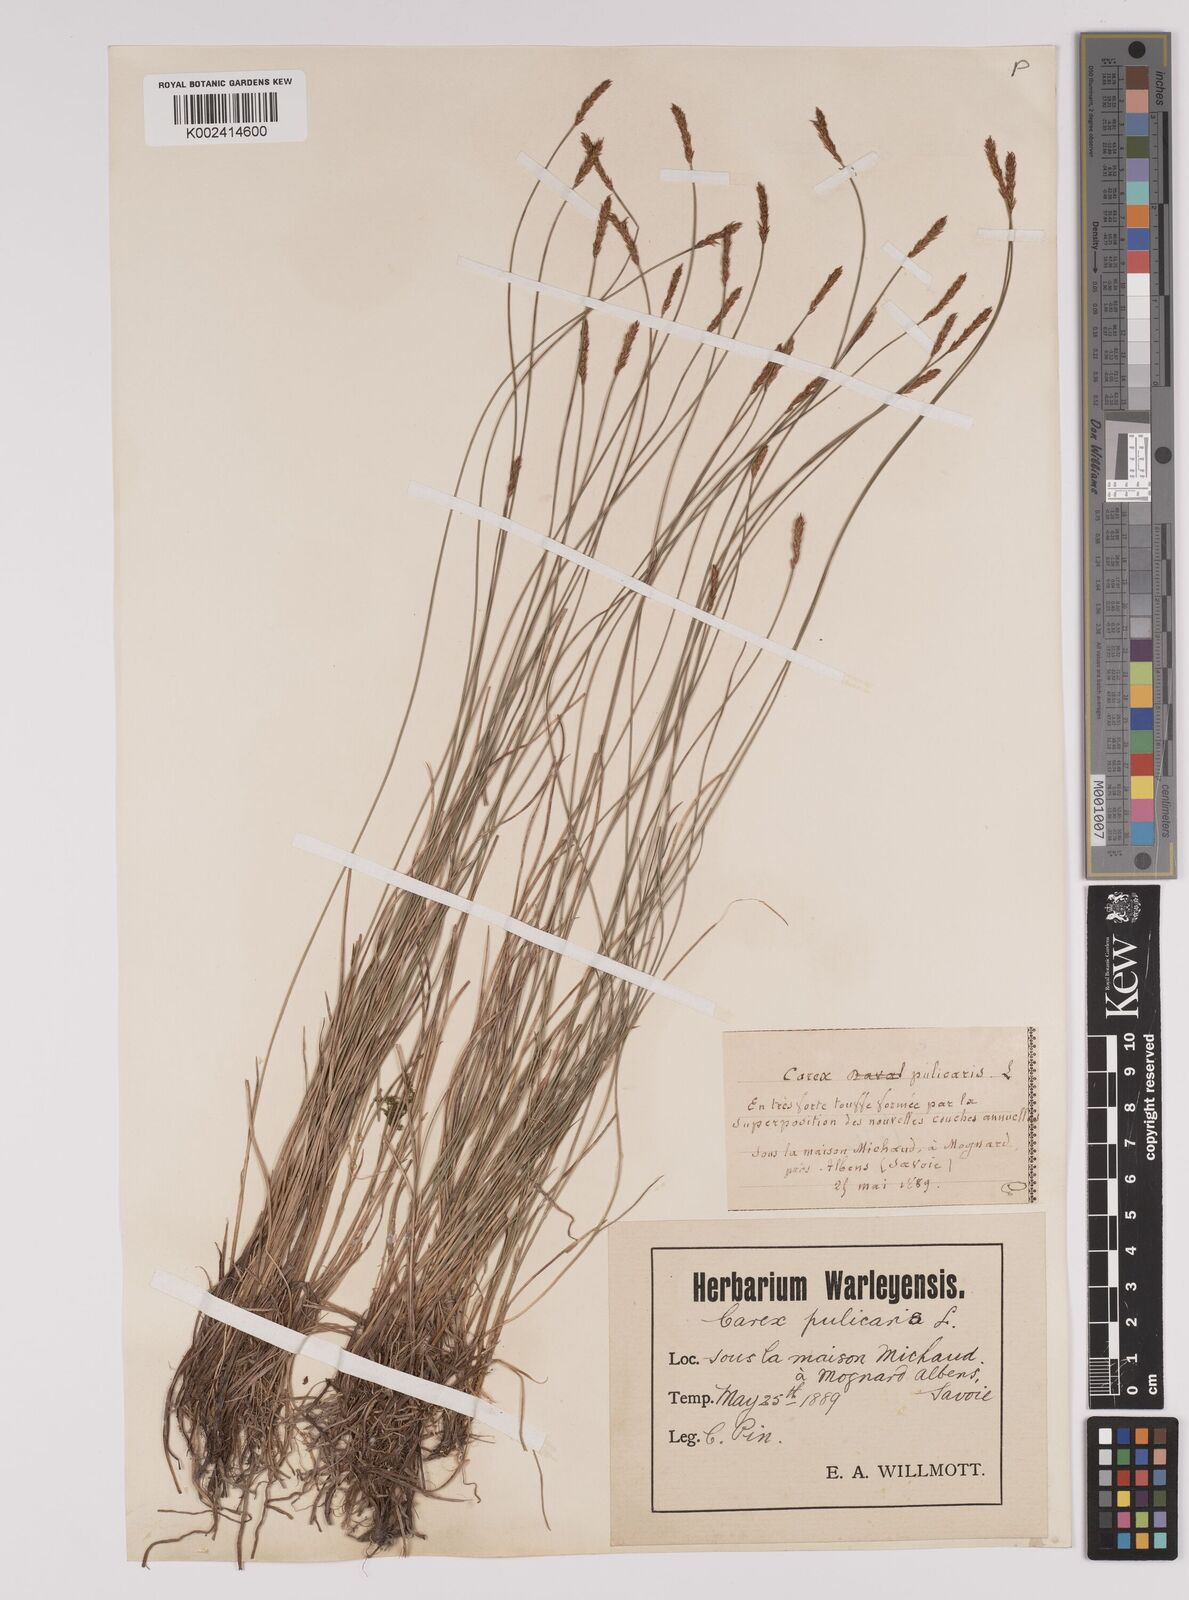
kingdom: Plantae
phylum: Tracheophyta
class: Liliopsida
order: Poales
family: Cyperaceae
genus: Carex
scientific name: Carex davalliana
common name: Davall's sedge
